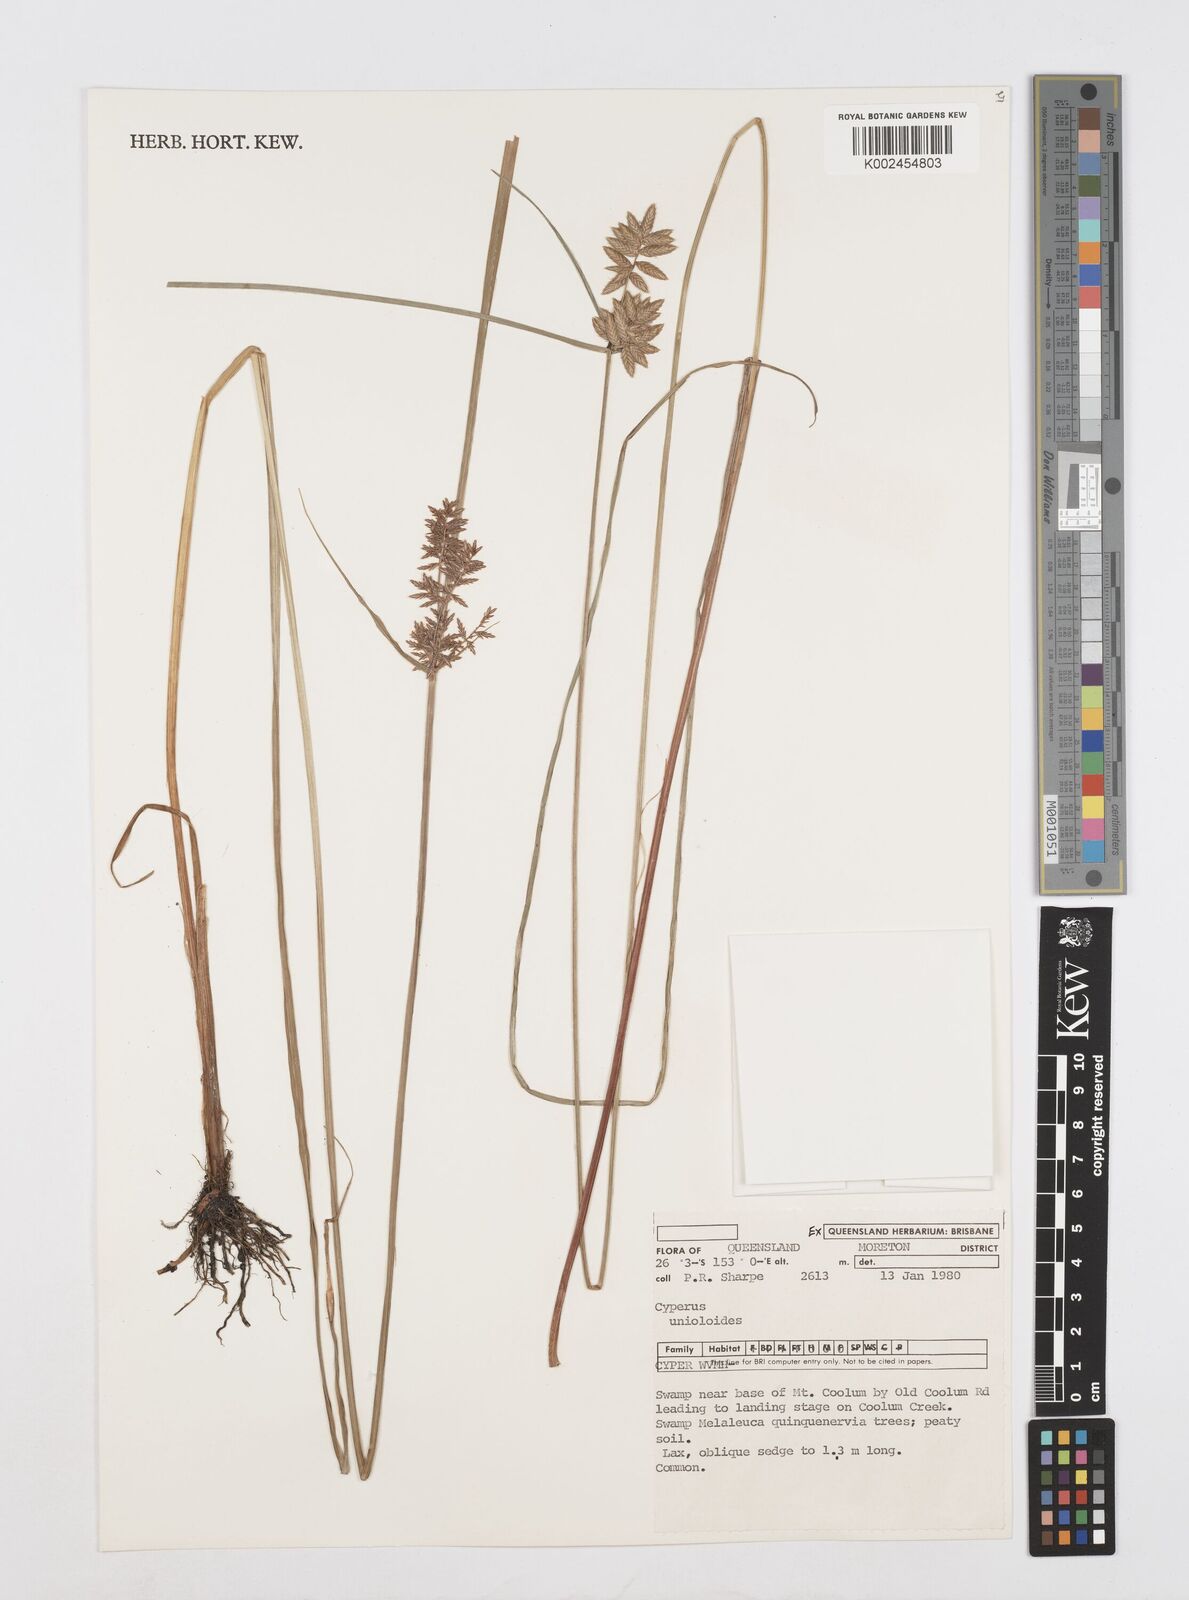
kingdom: Plantae
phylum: Tracheophyta
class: Liliopsida
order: Poales
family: Cyperaceae
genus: Cyperus
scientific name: Cyperus unioloides
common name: Uniola flatsedge
